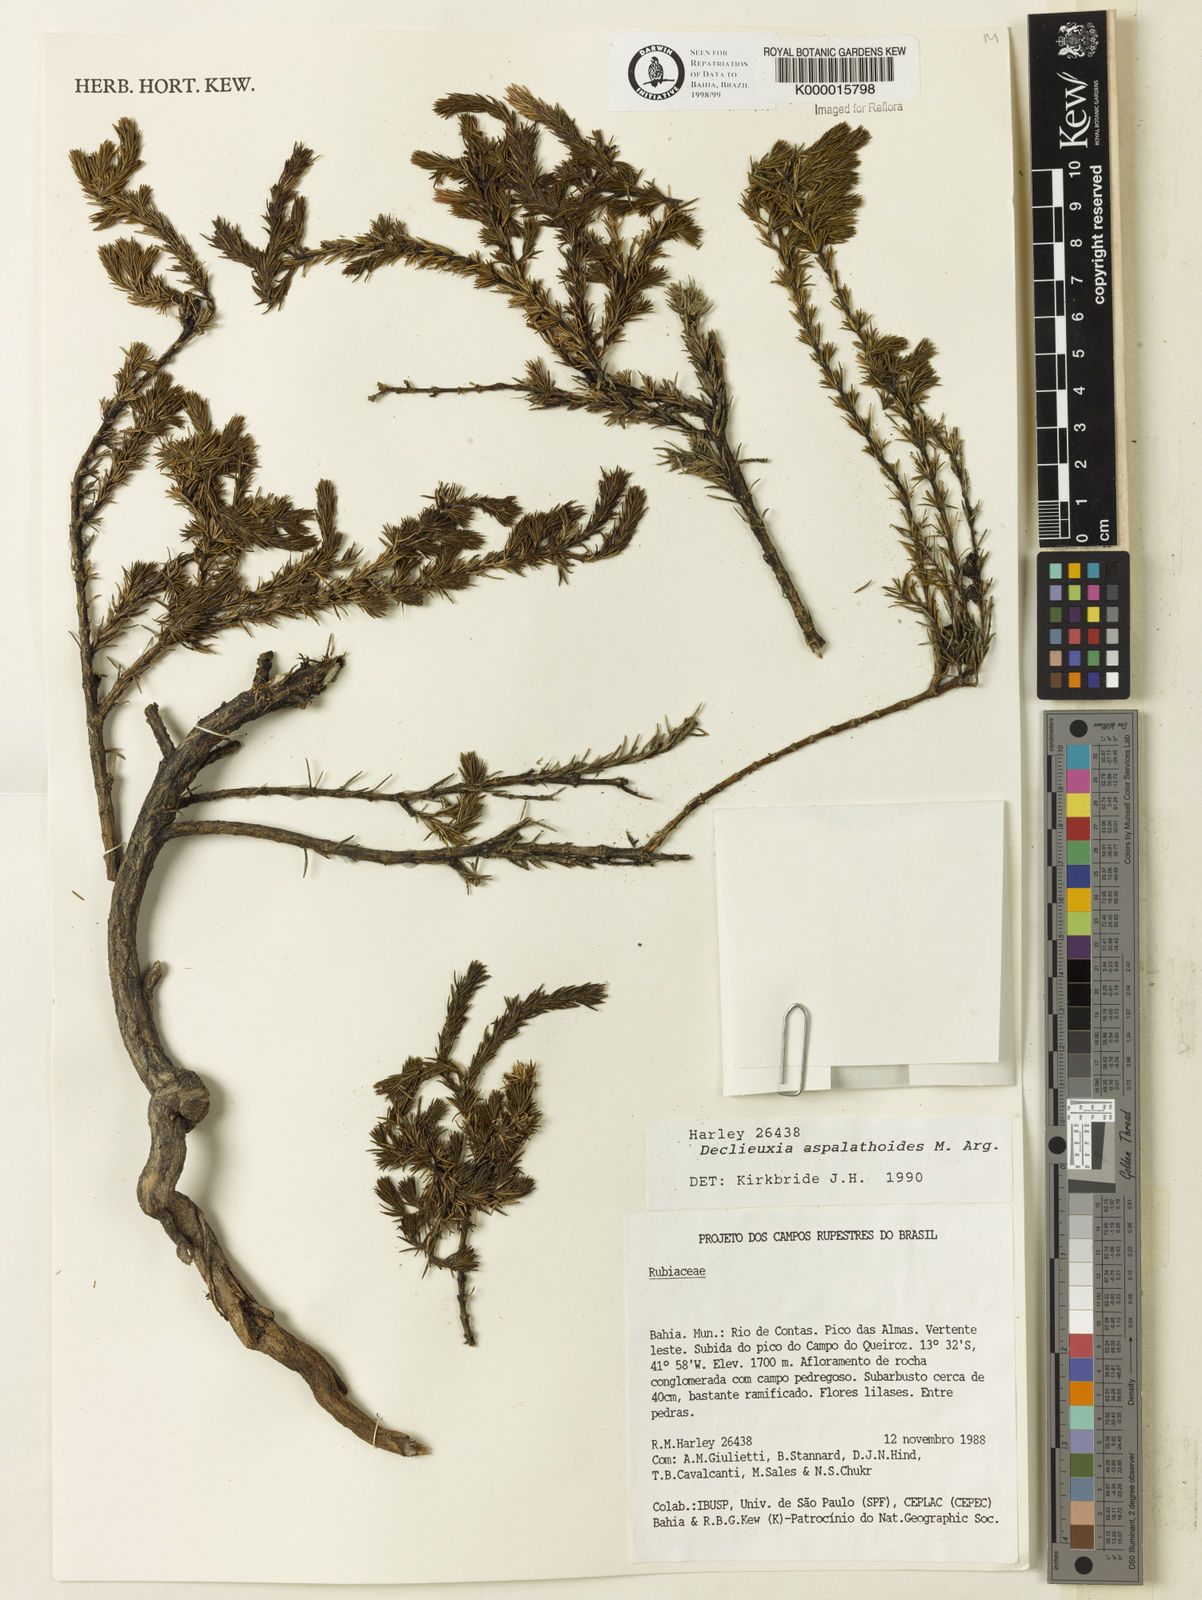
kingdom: Plantae
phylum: Tracheophyta
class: Magnoliopsida
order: Gentianales
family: Rubiaceae
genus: Declieuxia
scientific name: Declieuxia aspalathoides
